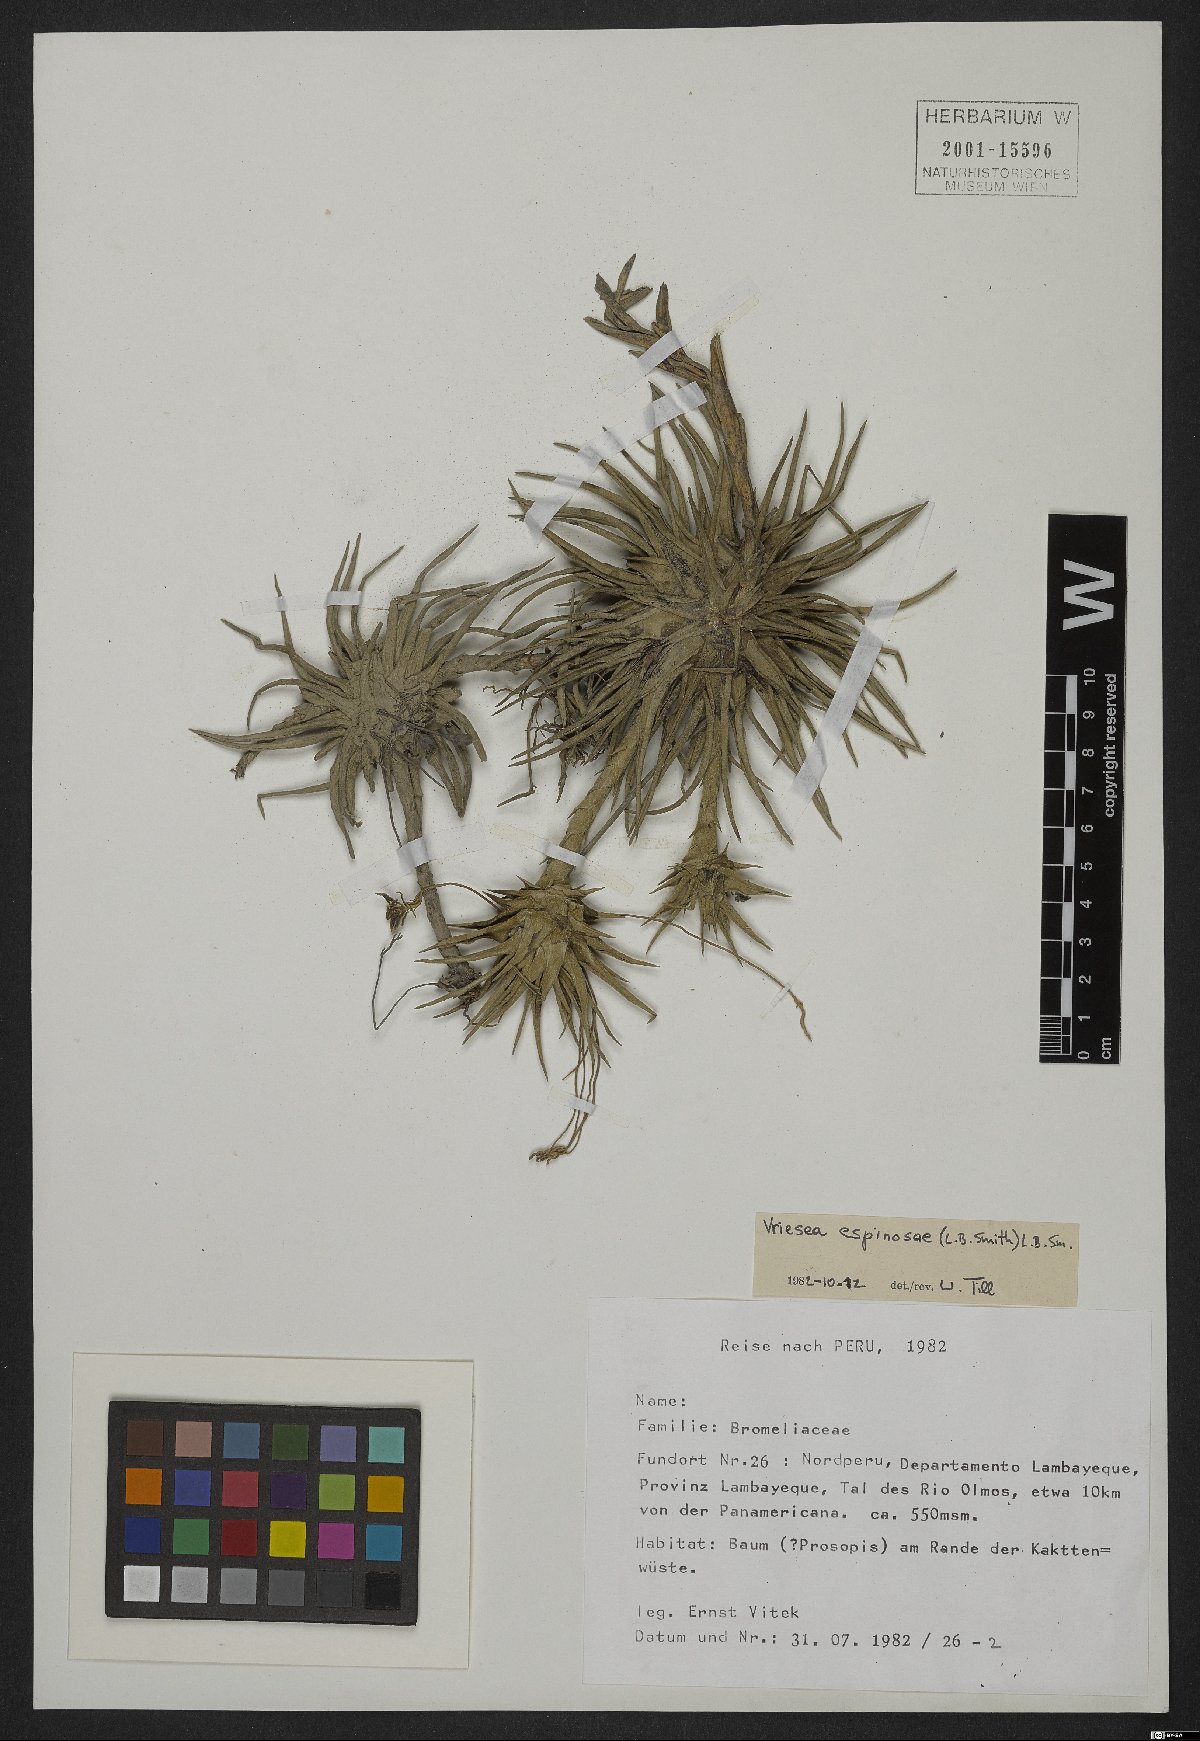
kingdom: Plantae
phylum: Tracheophyta
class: Liliopsida
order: Poales
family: Bromeliaceae
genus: Tillandsia
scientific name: Tillandsia espinosae
